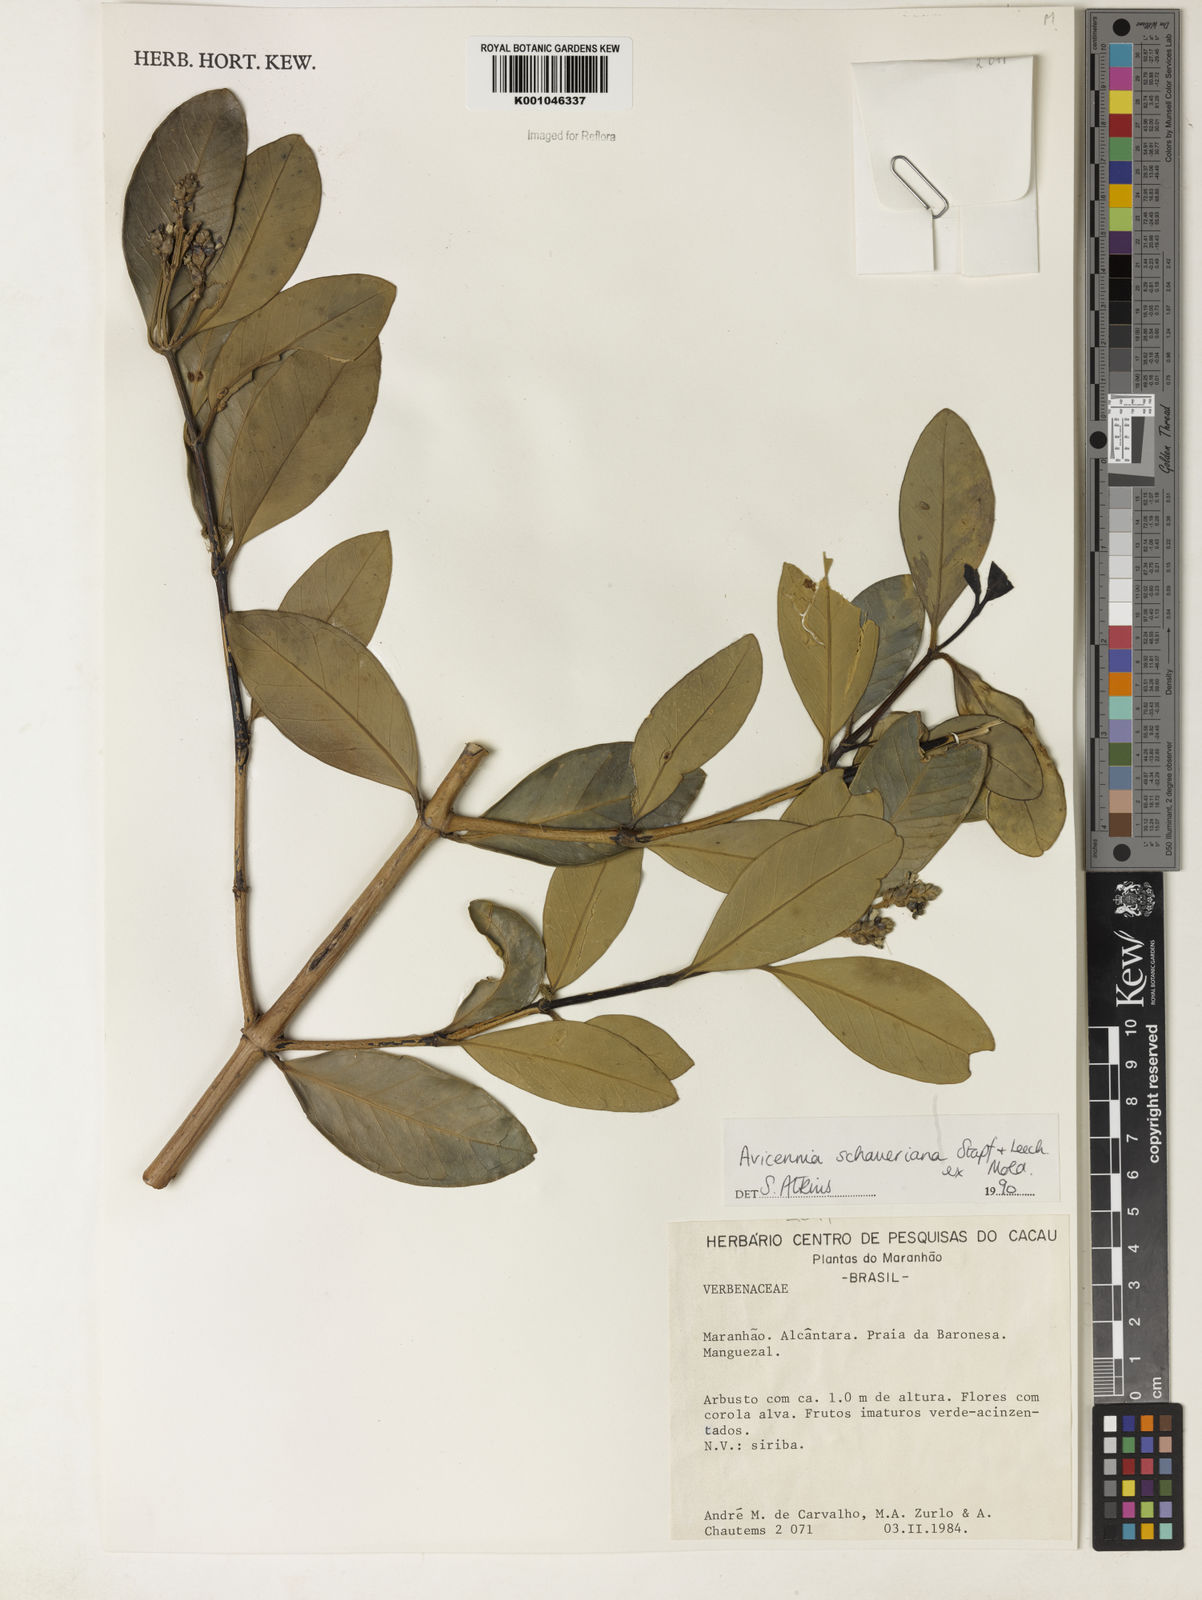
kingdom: Plantae
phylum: Tracheophyta
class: Magnoliopsida
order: Lamiales
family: Acanthaceae
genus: Avicennia
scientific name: Avicennia schaueriana
